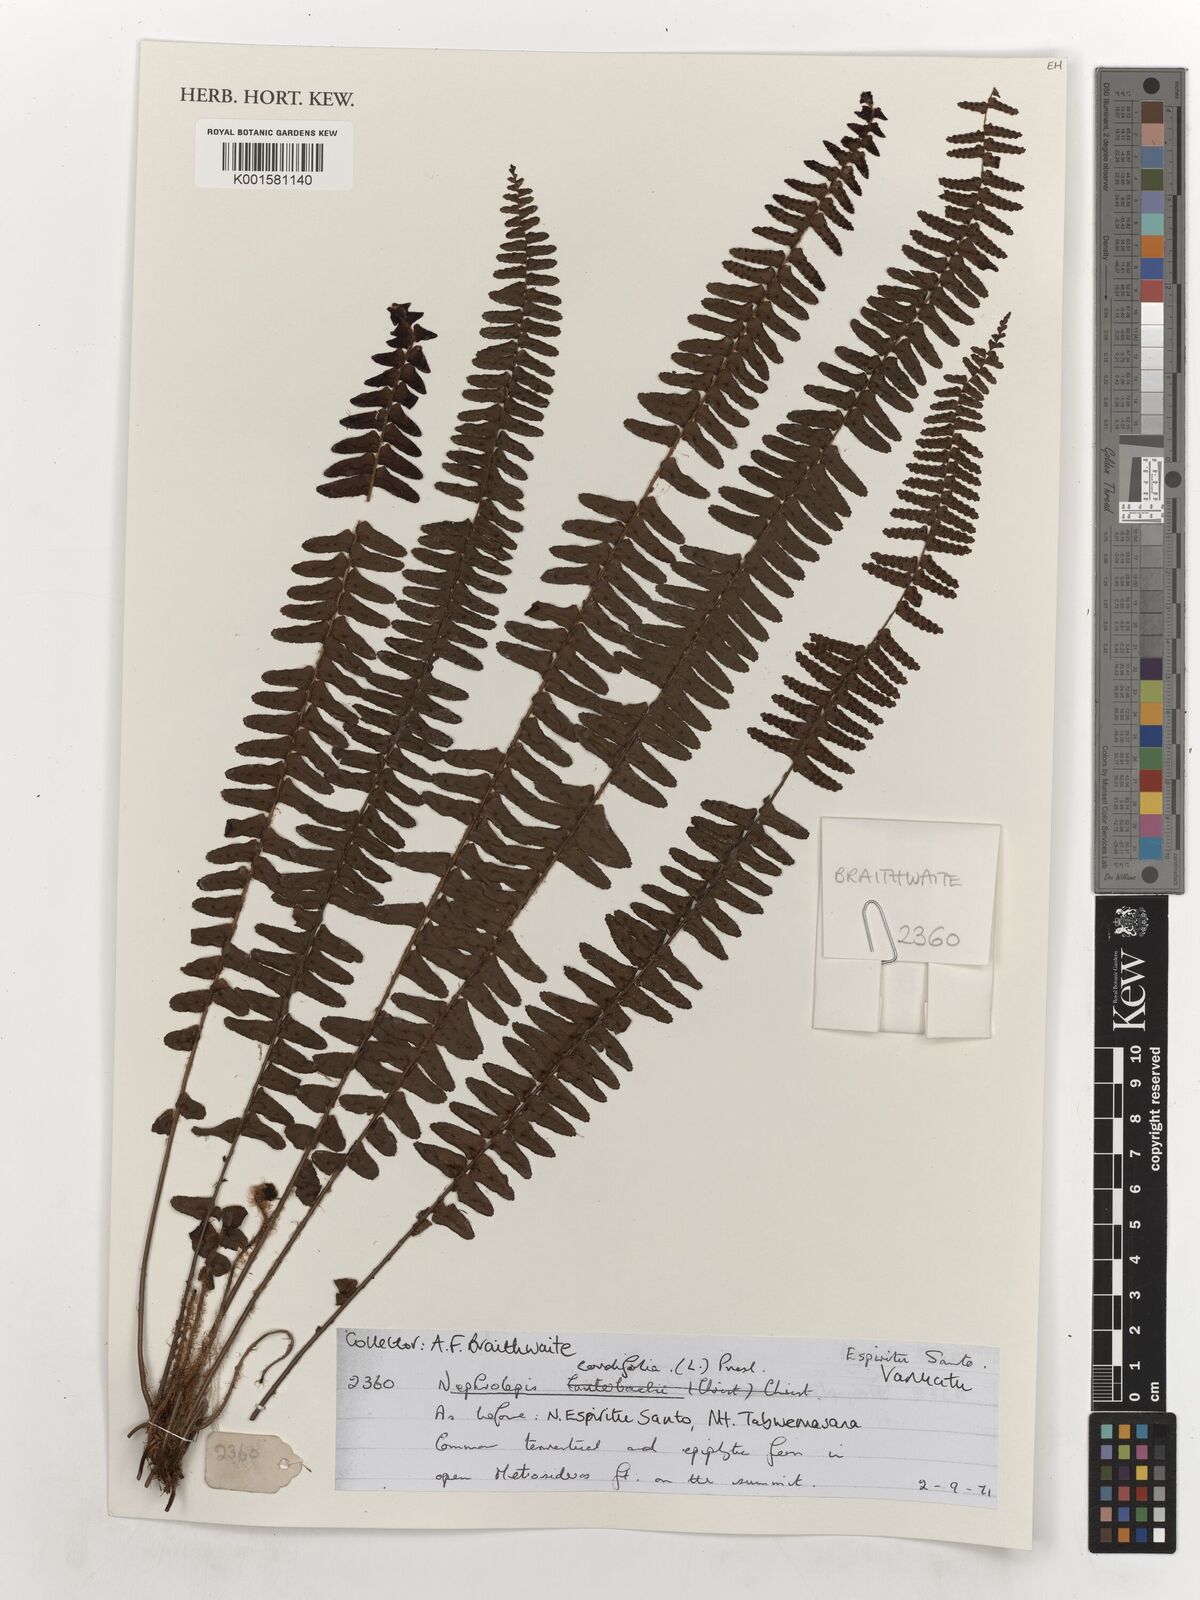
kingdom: Plantae
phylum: Tracheophyta
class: Polypodiopsida
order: Polypodiales
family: Nephrolepidaceae
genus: Nephrolepis
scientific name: Nephrolepis cordifolia
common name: Narrow swordfern
